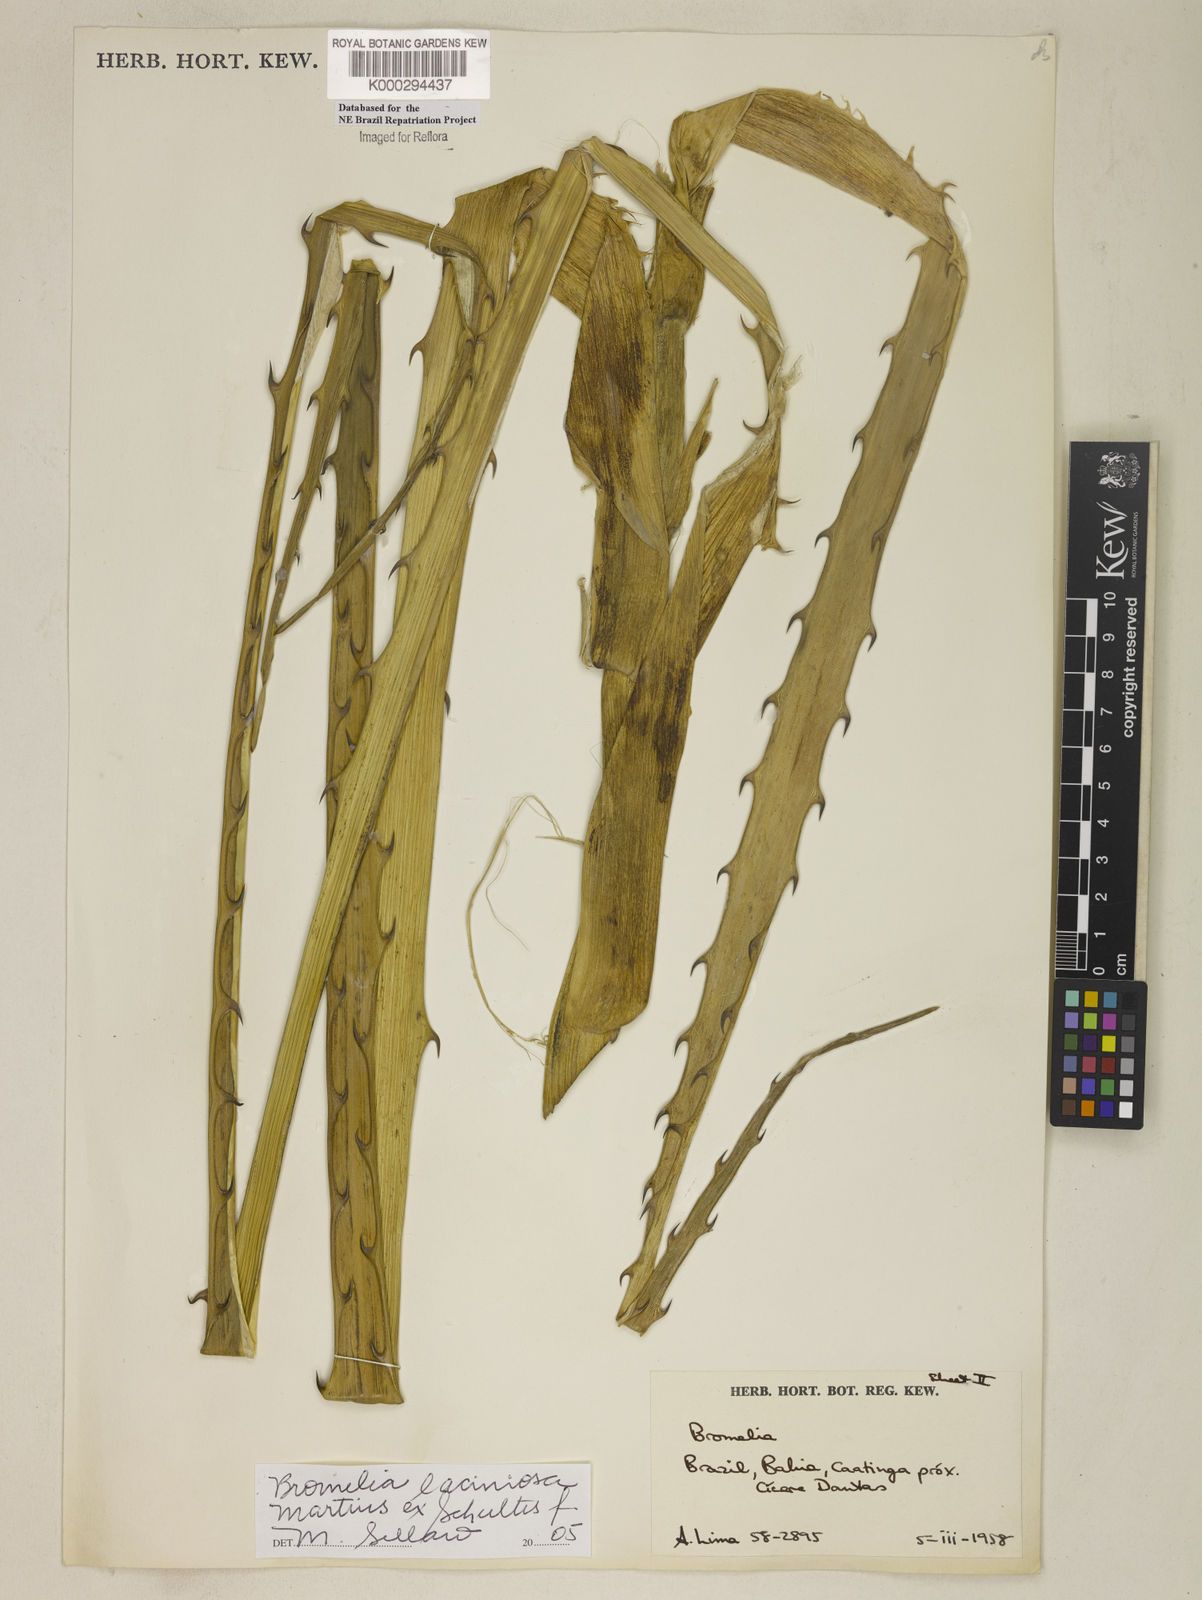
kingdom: Plantae
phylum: Tracheophyta
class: Liliopsida
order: Poales
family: Bromeliaceae
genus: Bromelia
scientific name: Bromelia laciniosa
